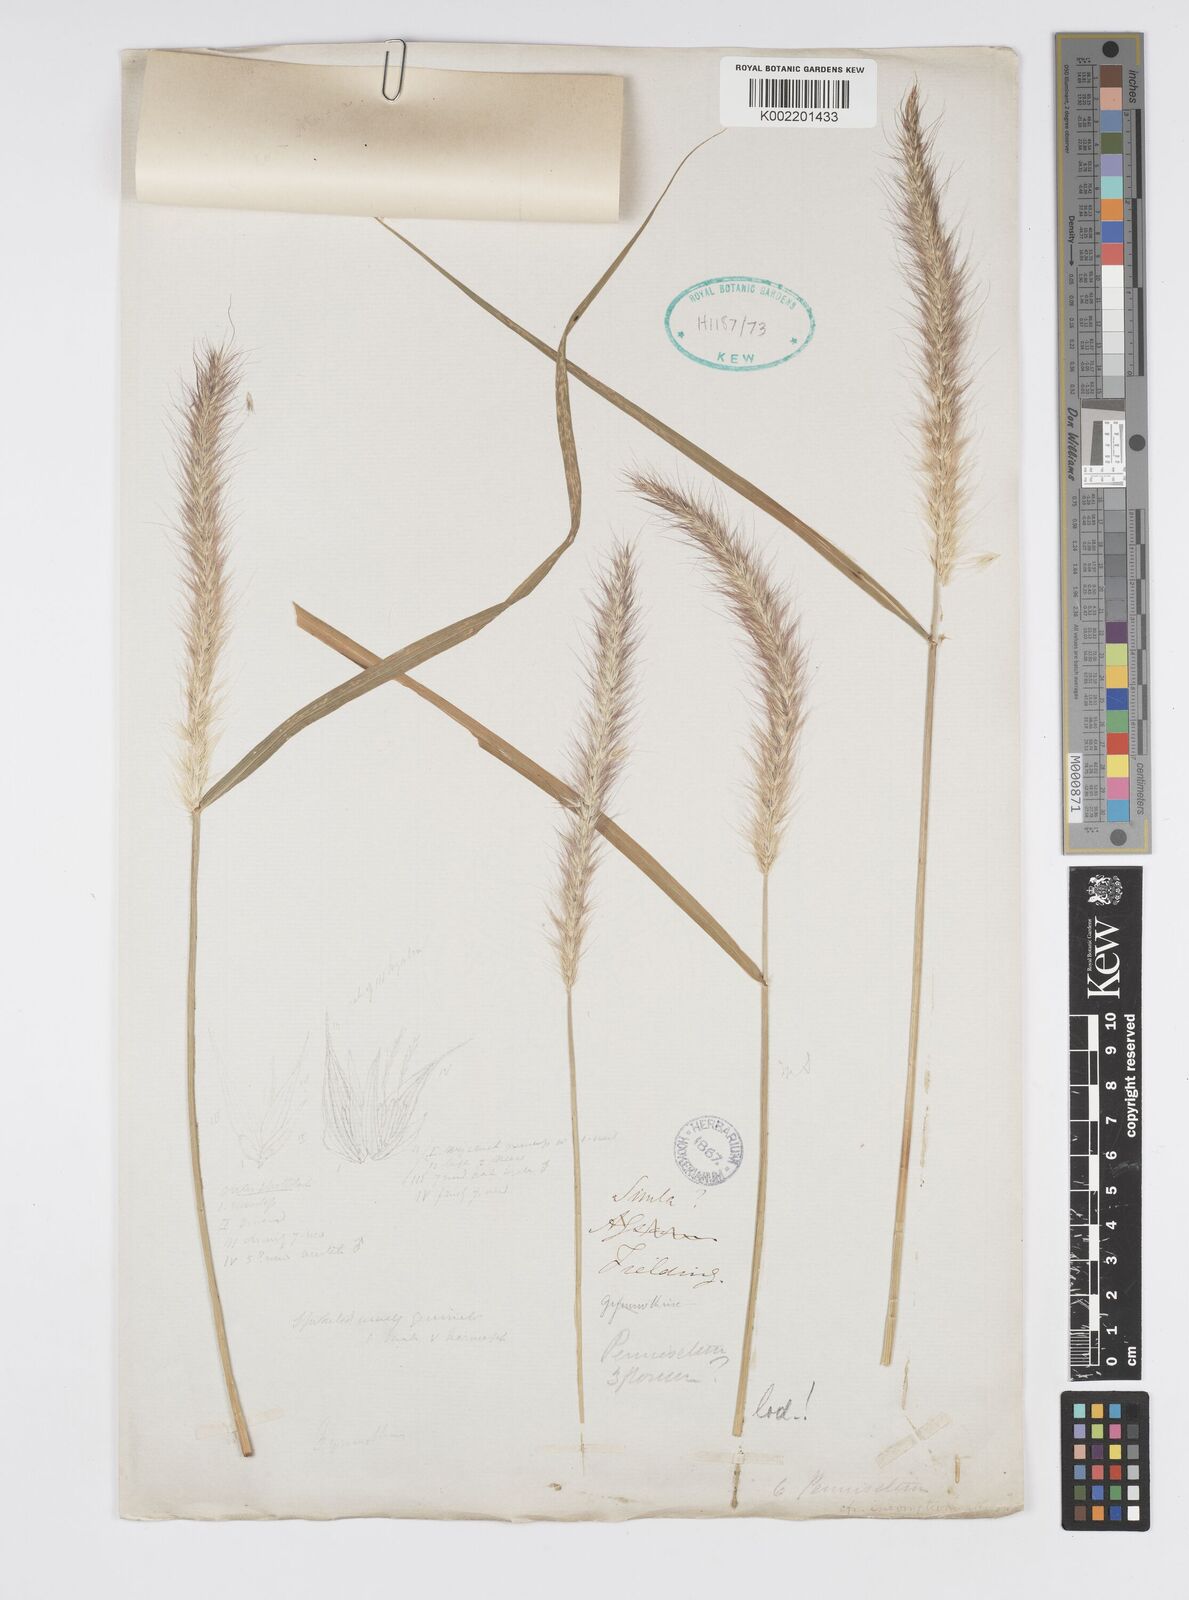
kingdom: Plantae
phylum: Tracheophyta
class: Liliopsida
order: Poales
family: Poaceae
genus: Cenchrus
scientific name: Cenchrus flaccidus
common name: Flaccid grass
